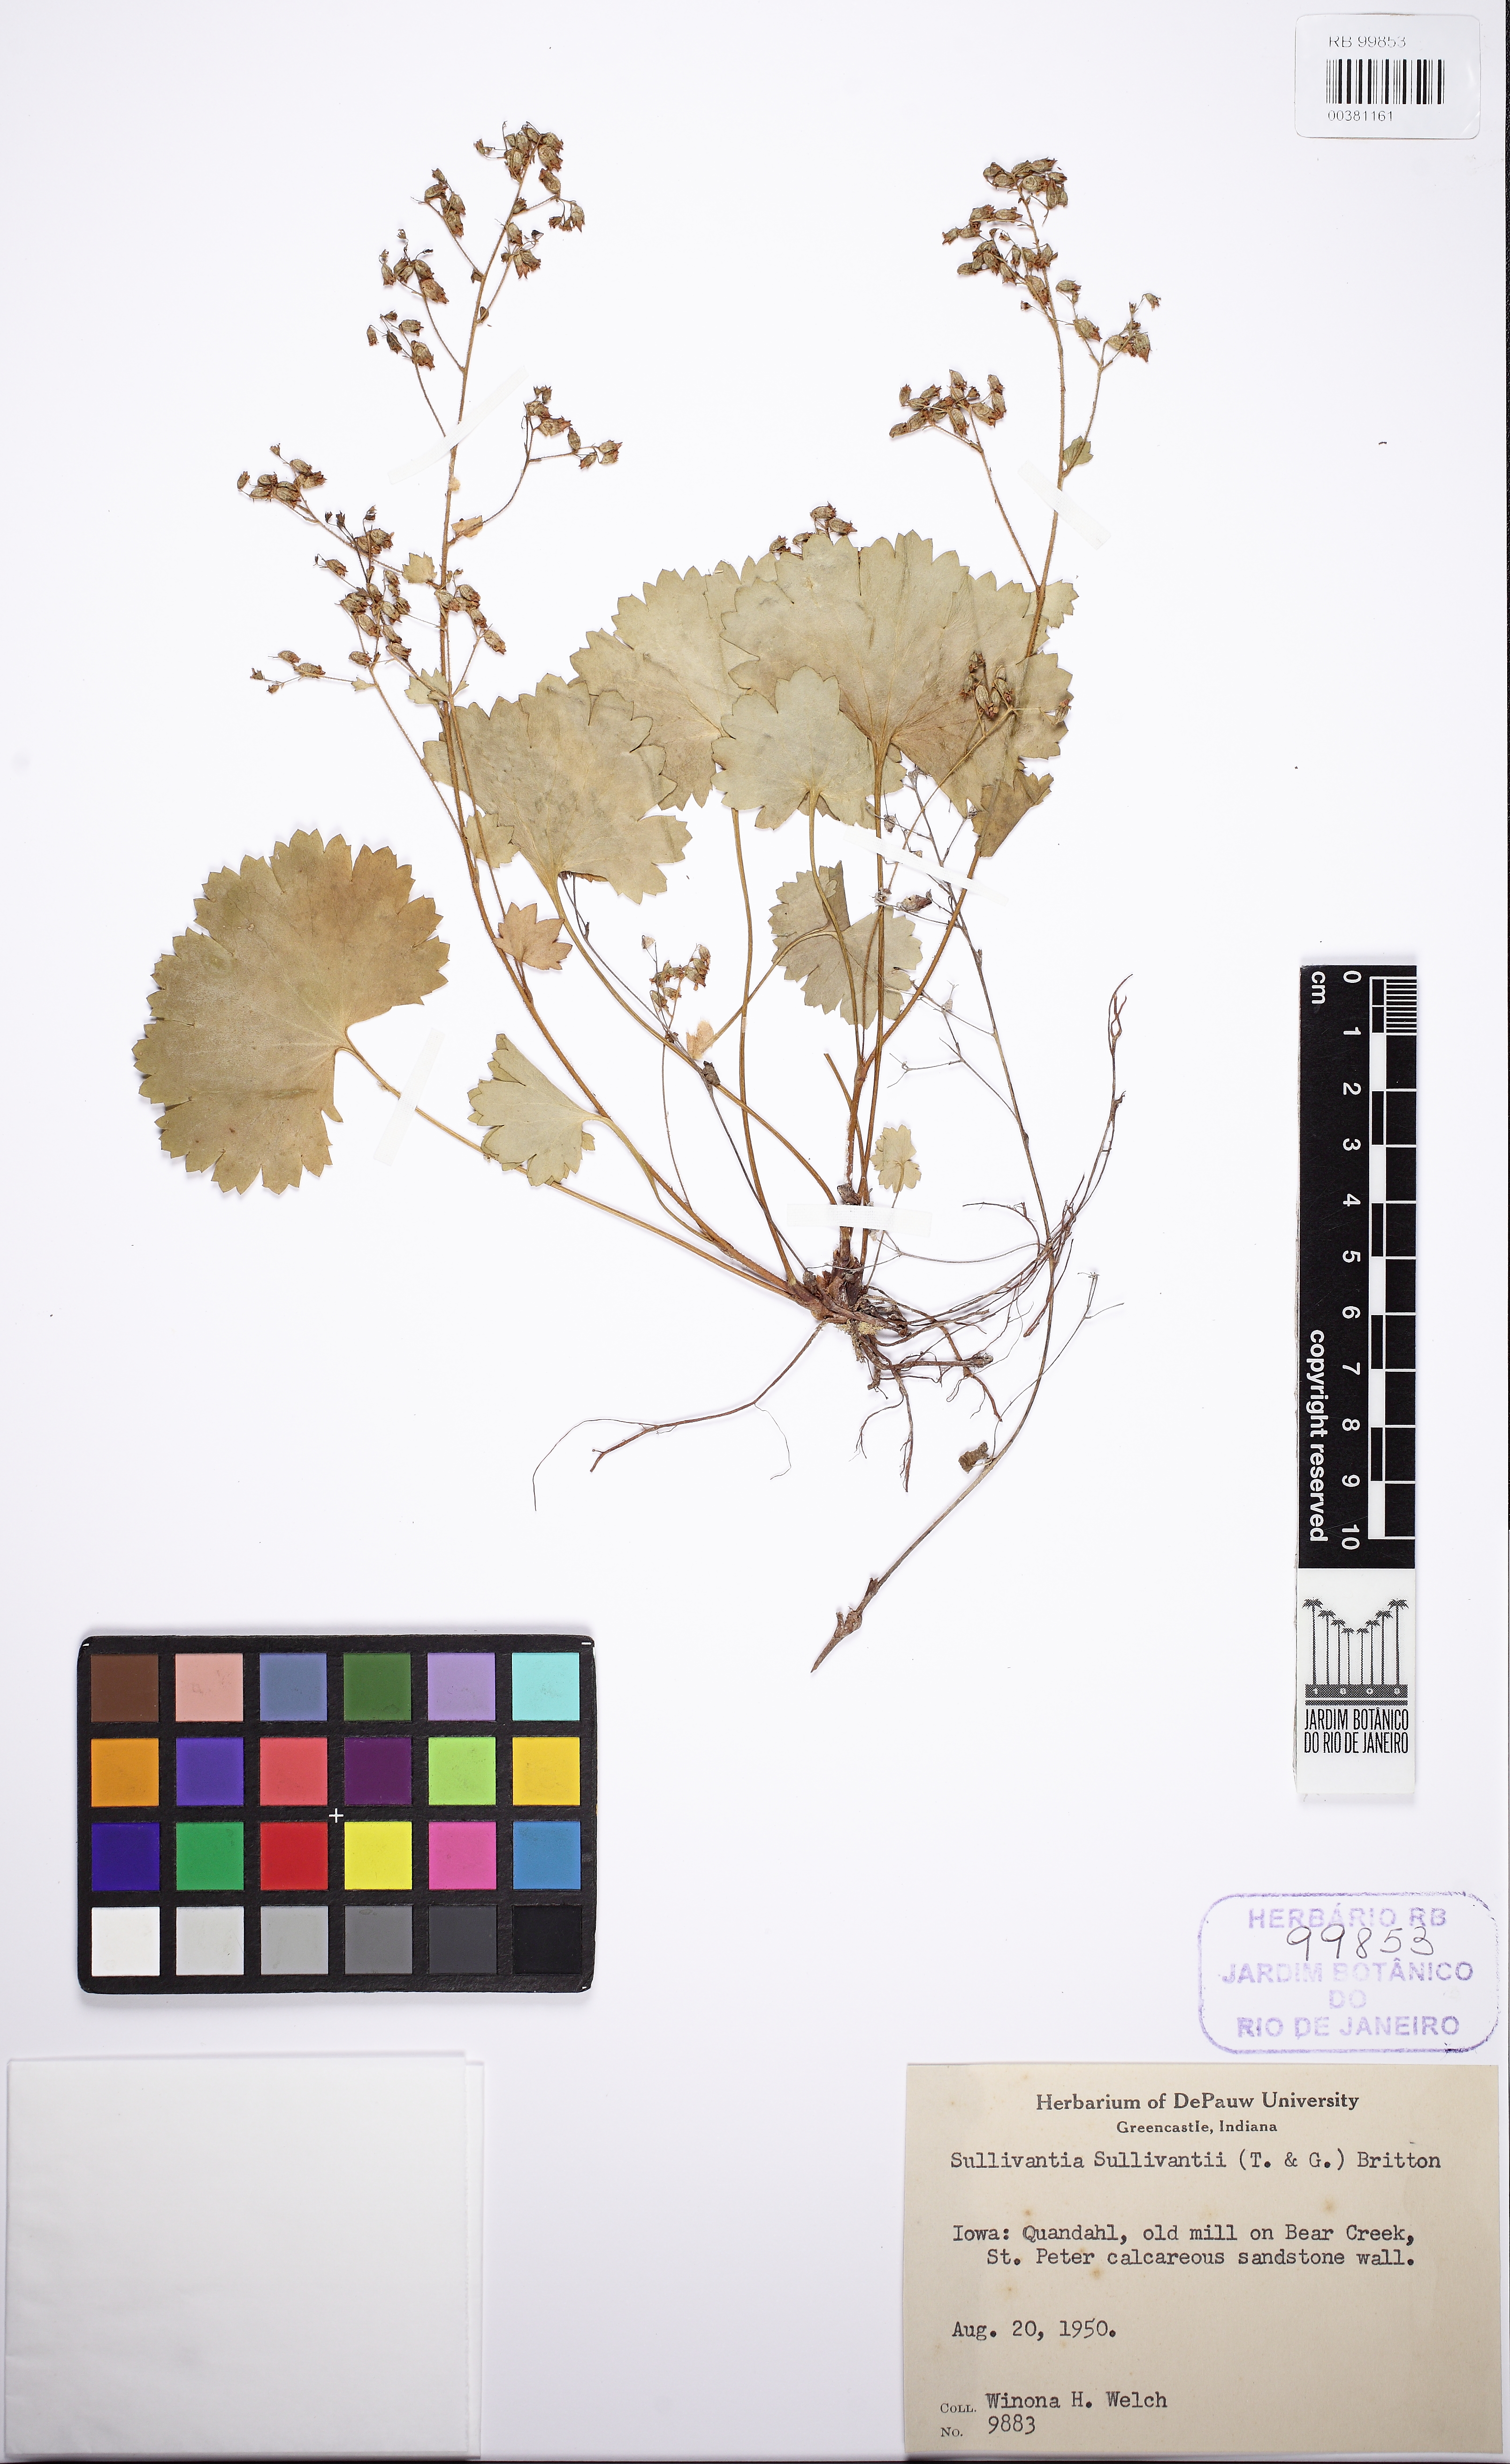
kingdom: Plantae
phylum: Tracheophyta
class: Magnoliopsida
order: Saxifragales
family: Saxifragaceae
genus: Sullivantia
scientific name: Sullivantia sullivantii
